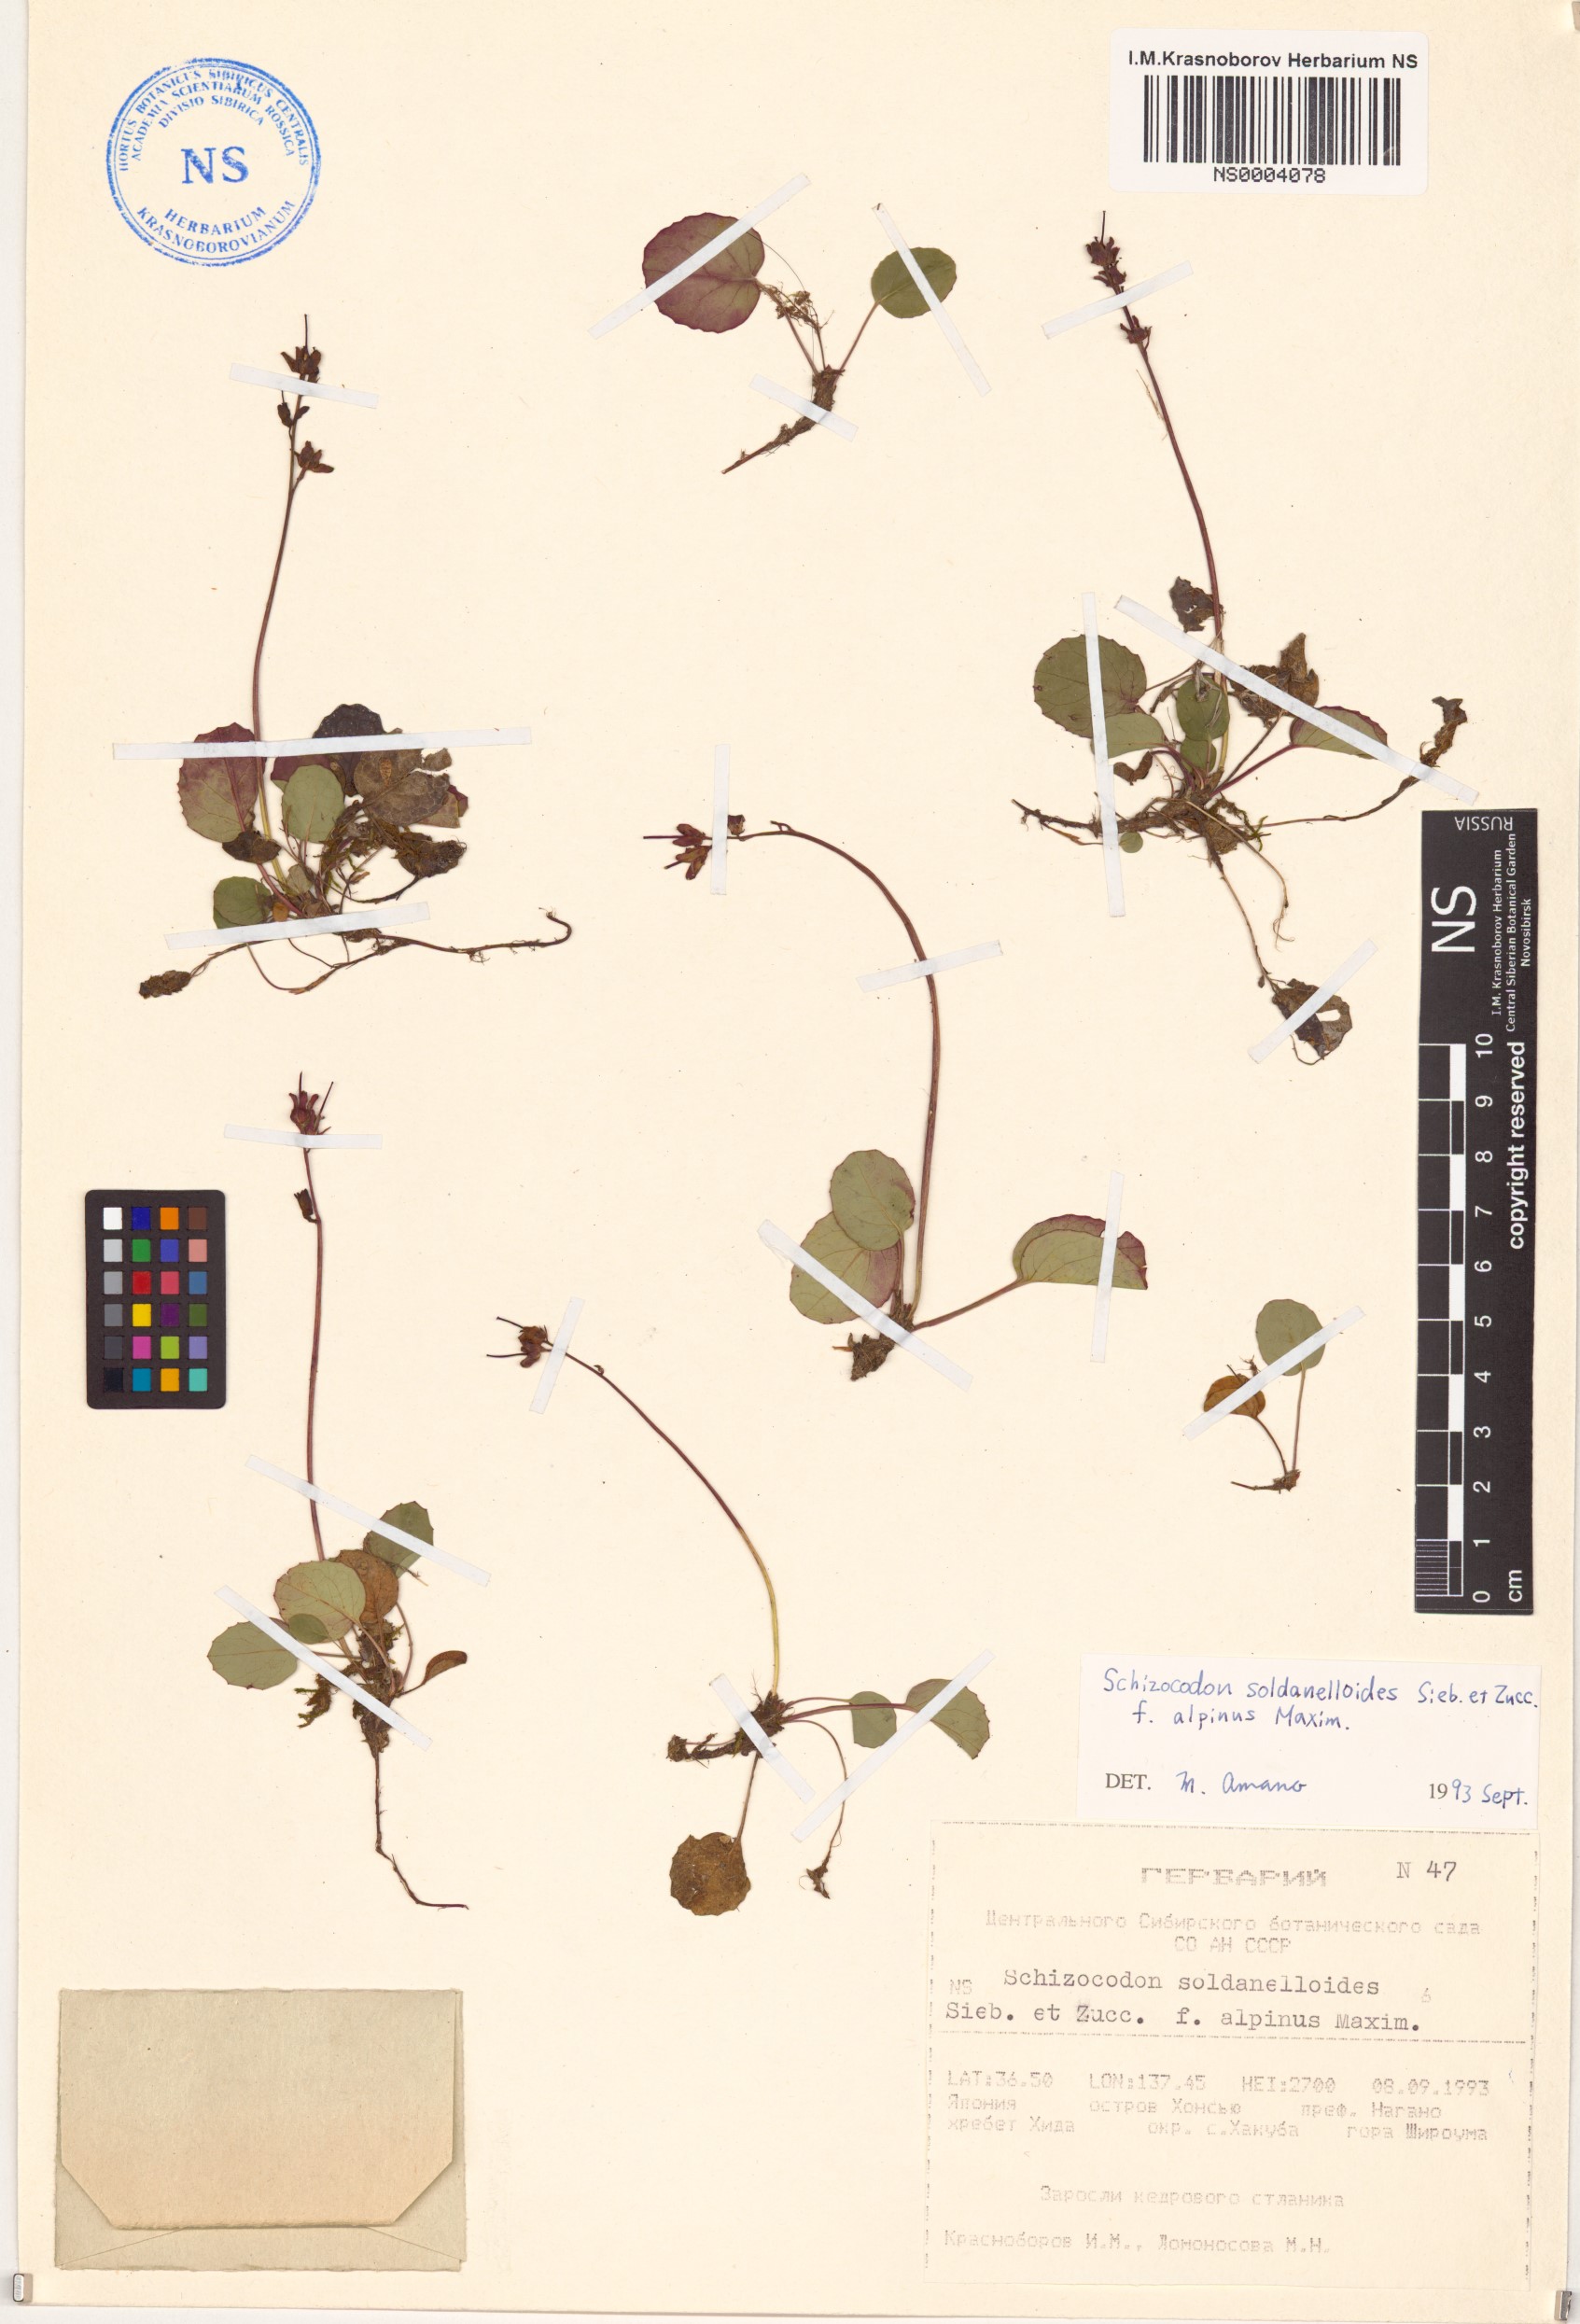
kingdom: Plantae
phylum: Tracheophyta
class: Magnoliopsida
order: Ericales
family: Diapensiaceae
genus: Schizocodon
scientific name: Schizocodon soldanelloides
